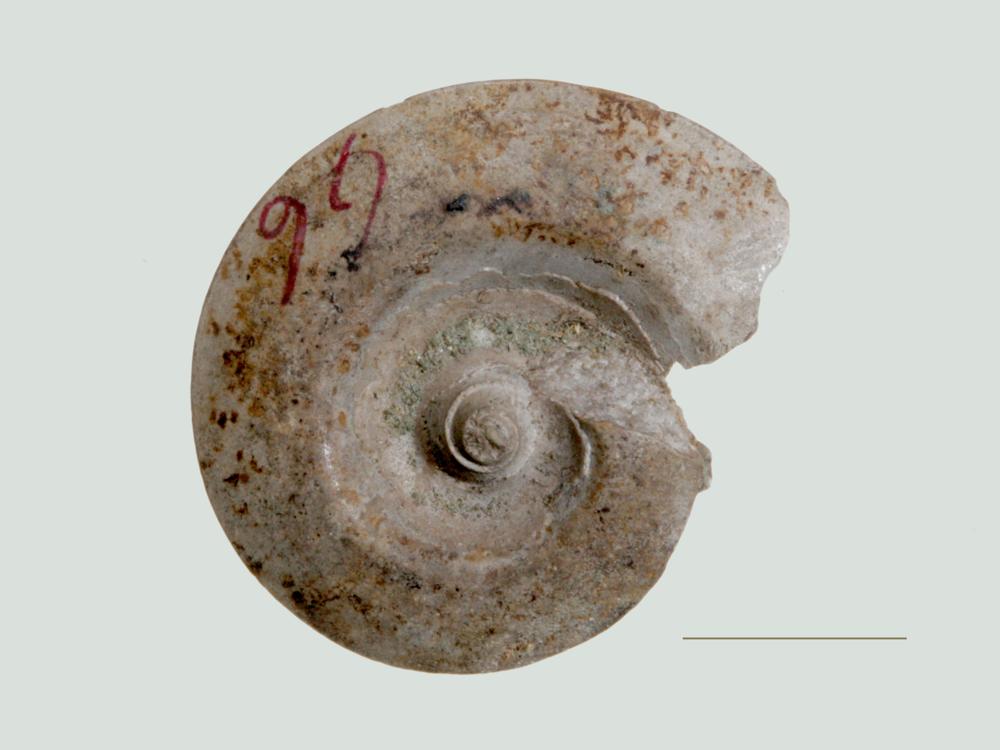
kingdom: Animalia
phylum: Mollusca
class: Cephalopoda
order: Goniatitida
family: Goniatitidae
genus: Goniatites
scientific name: Goniatites silurica
